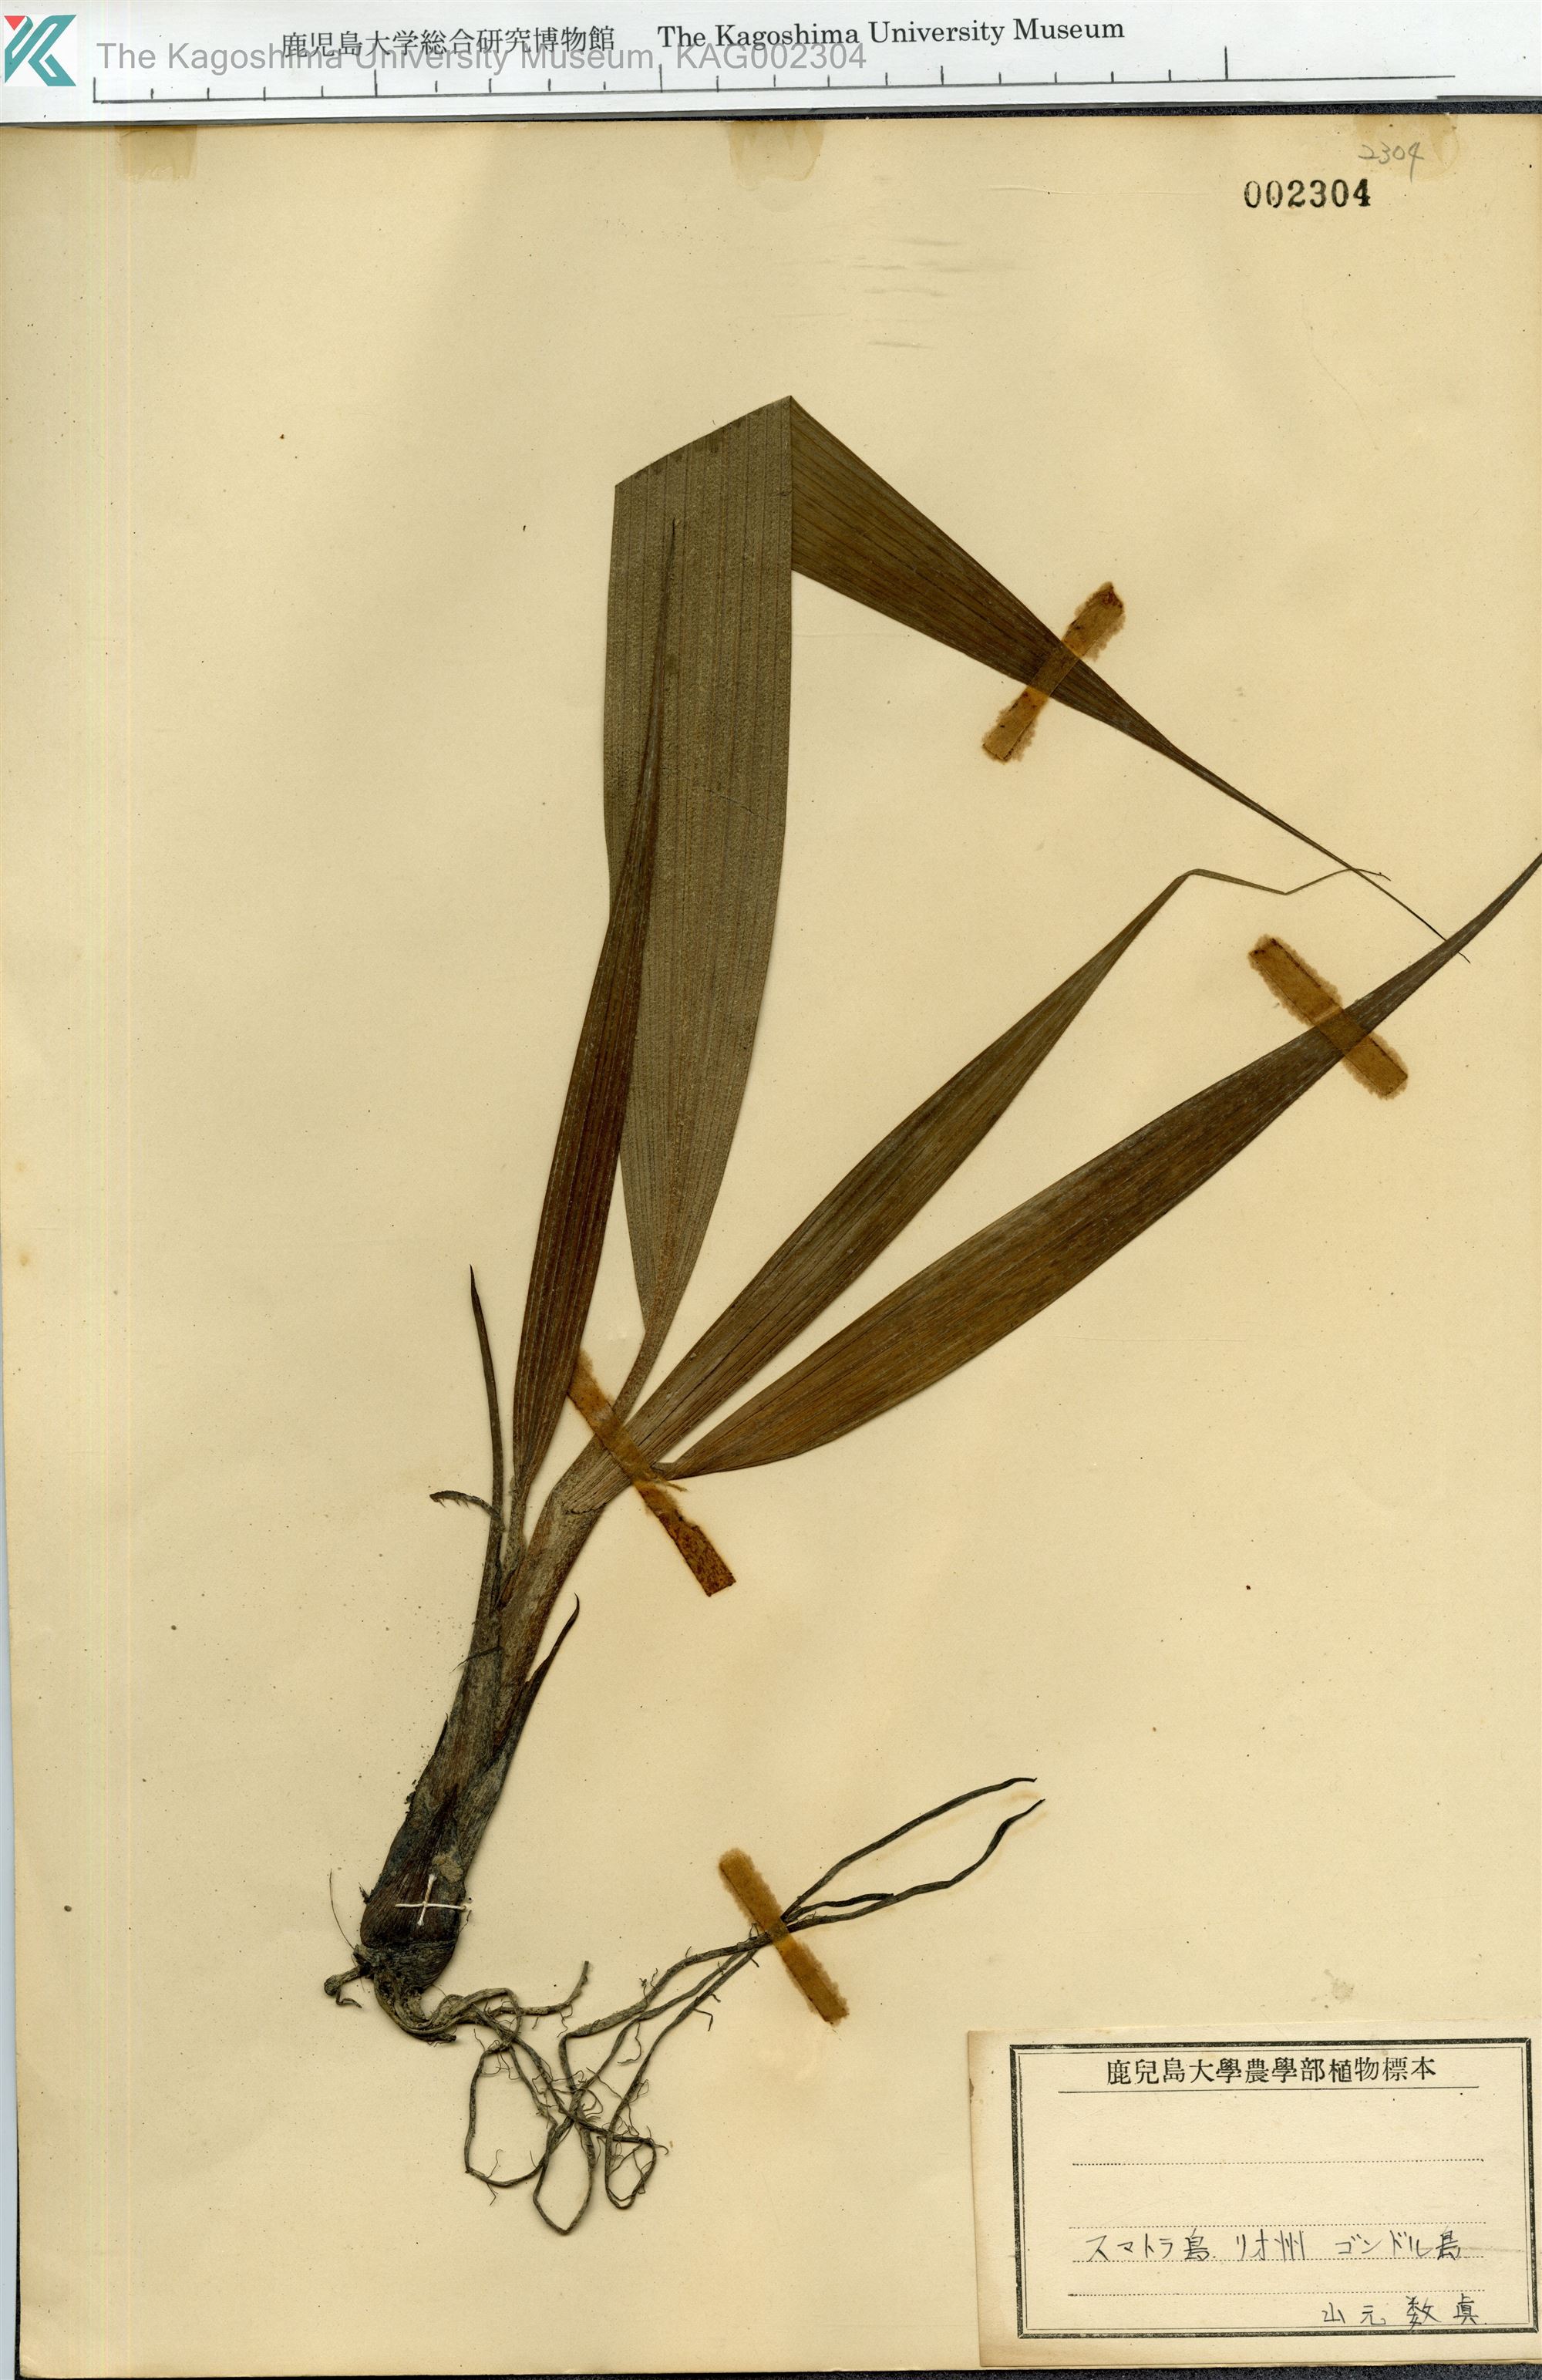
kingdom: Plantae
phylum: Tracheophyta
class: Liliopsida
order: Asparagales
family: Hypoxidaceae
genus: Curculigo
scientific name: Curculigo
